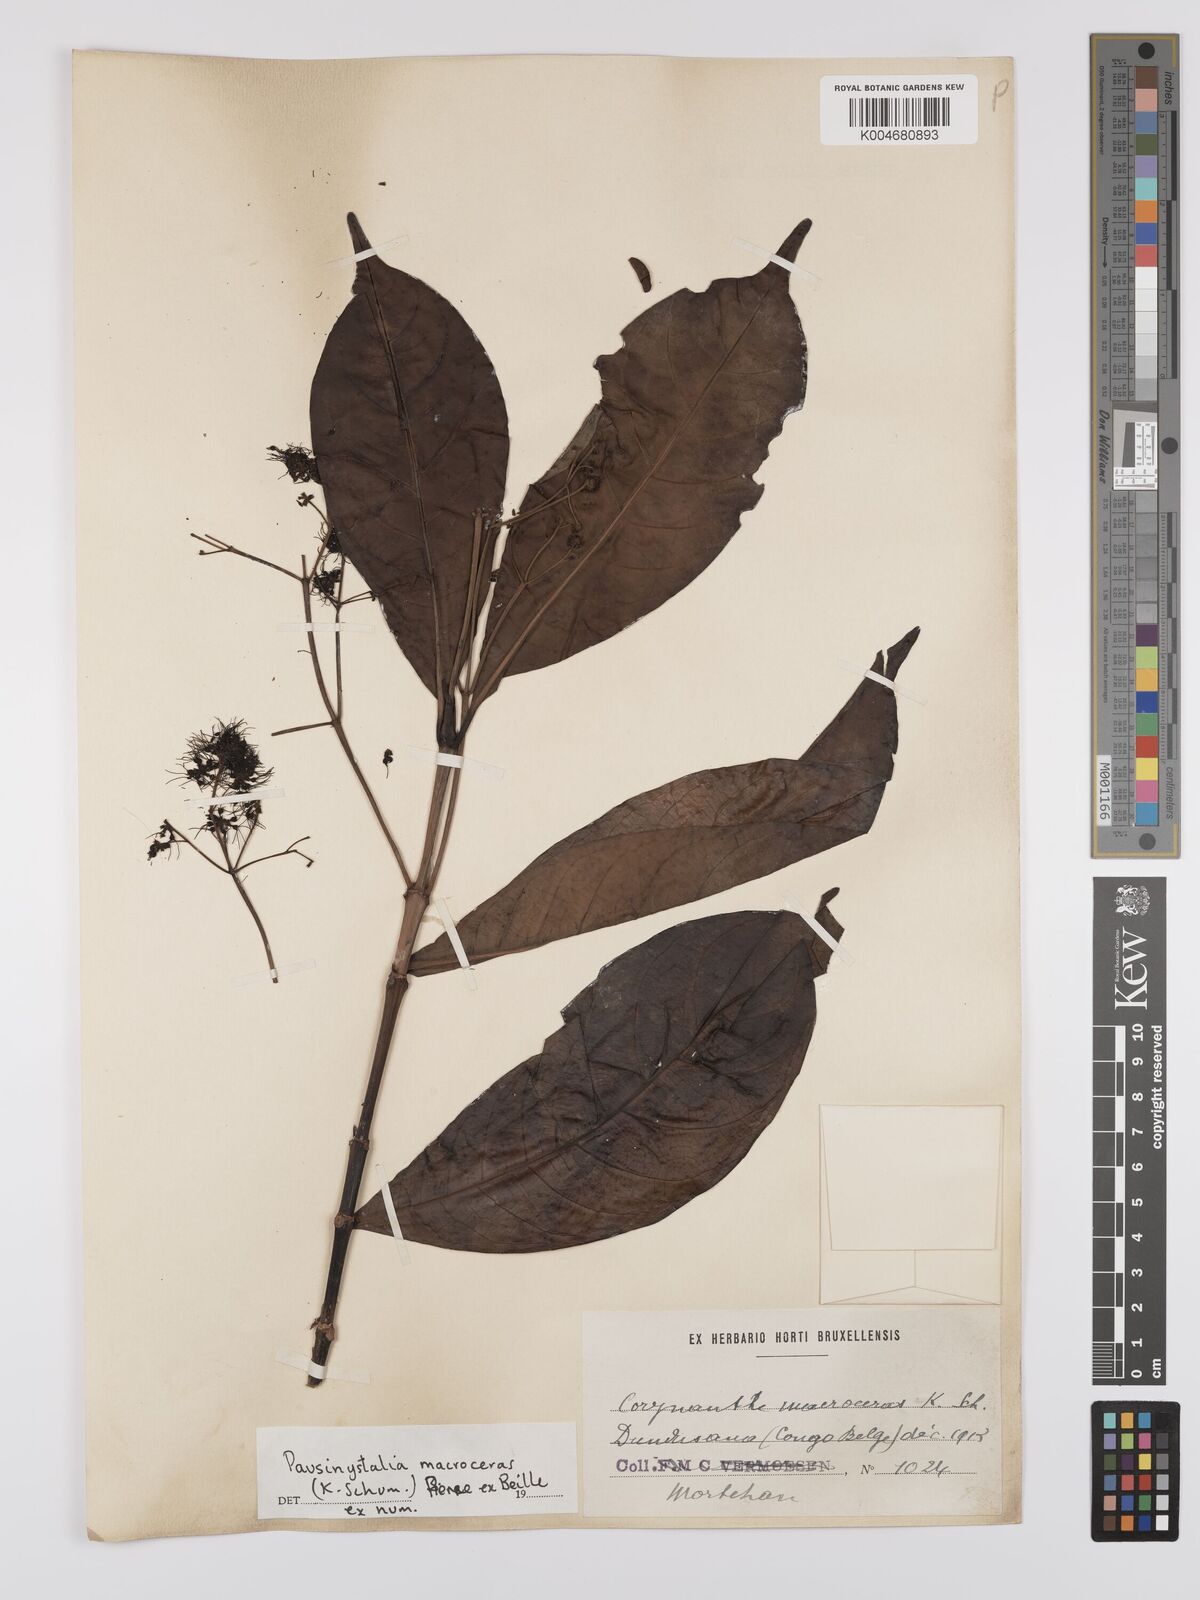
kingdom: Plantae
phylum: Tracheophyta
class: Magnoliopsida
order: Gentianales
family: Rubiaceae
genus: Corynanthe
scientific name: Corynanthe macroceras
